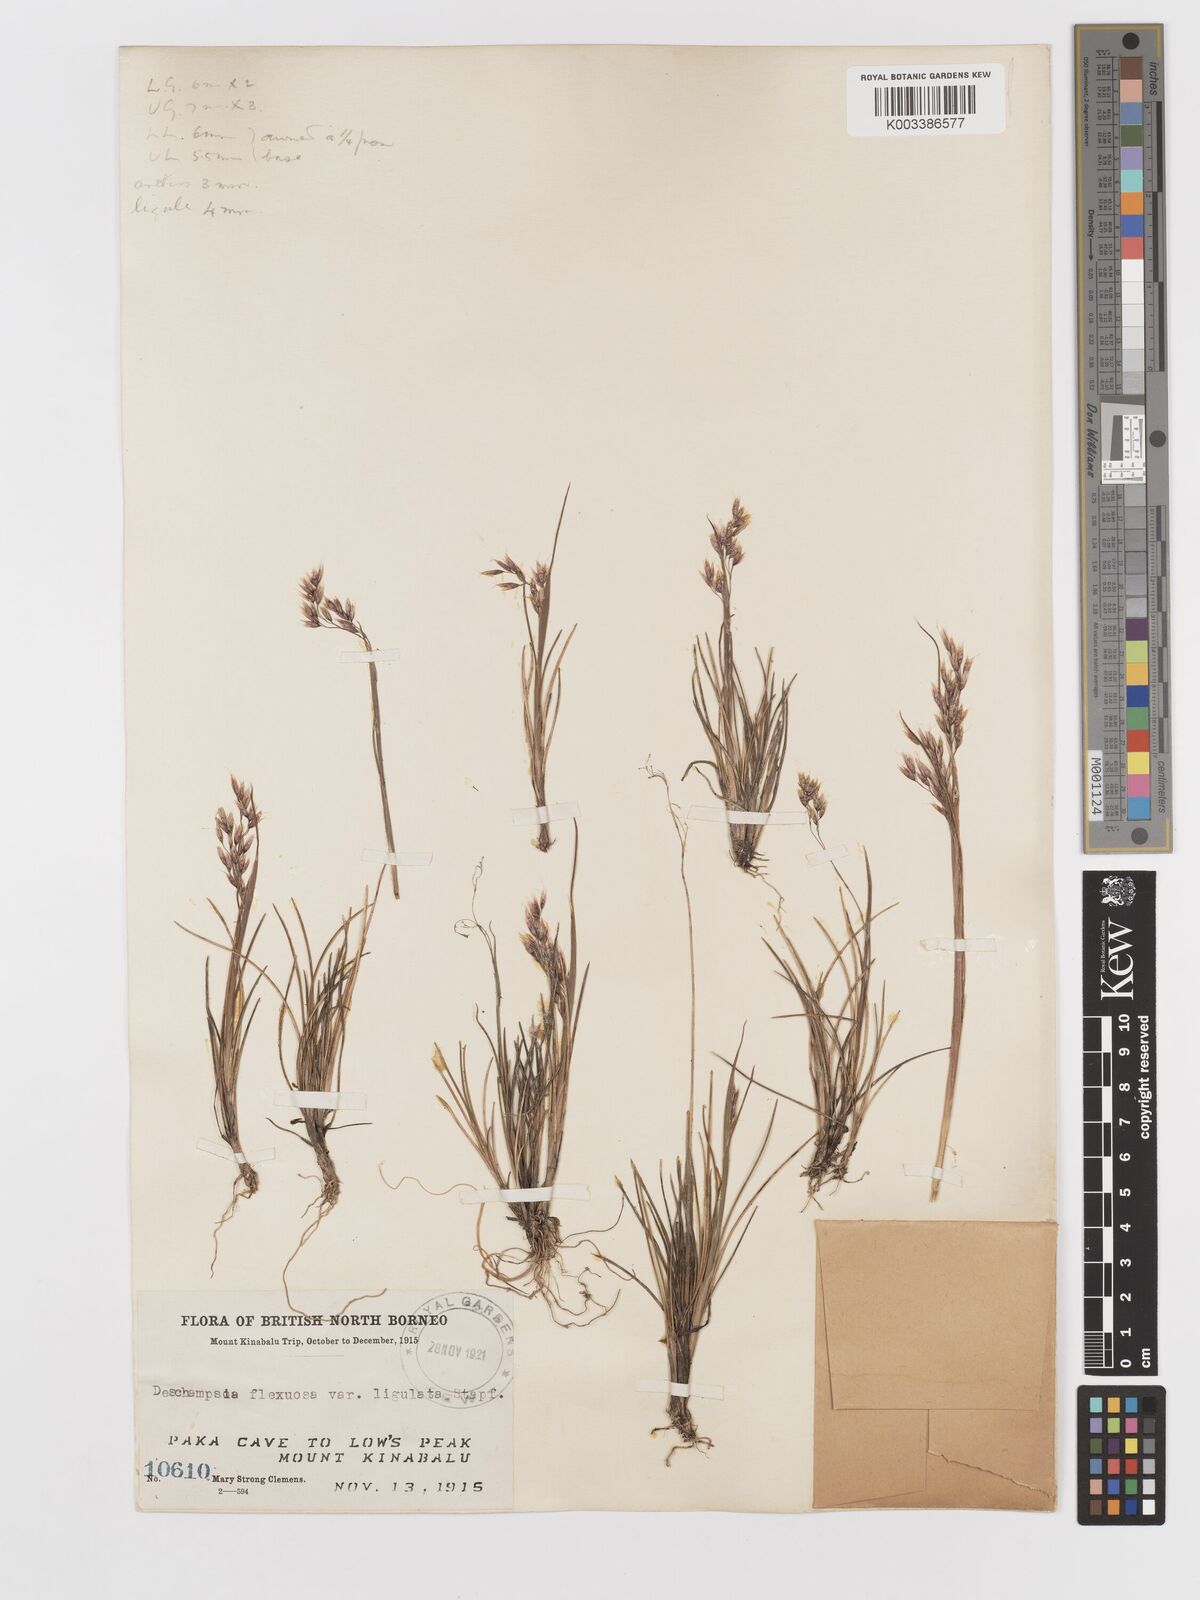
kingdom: Plantae
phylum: Tracheophyta
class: Liliopsida
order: Poales
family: Poaceae
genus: Avenella
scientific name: Avenella flexuosa
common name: Wavy hairgrass
